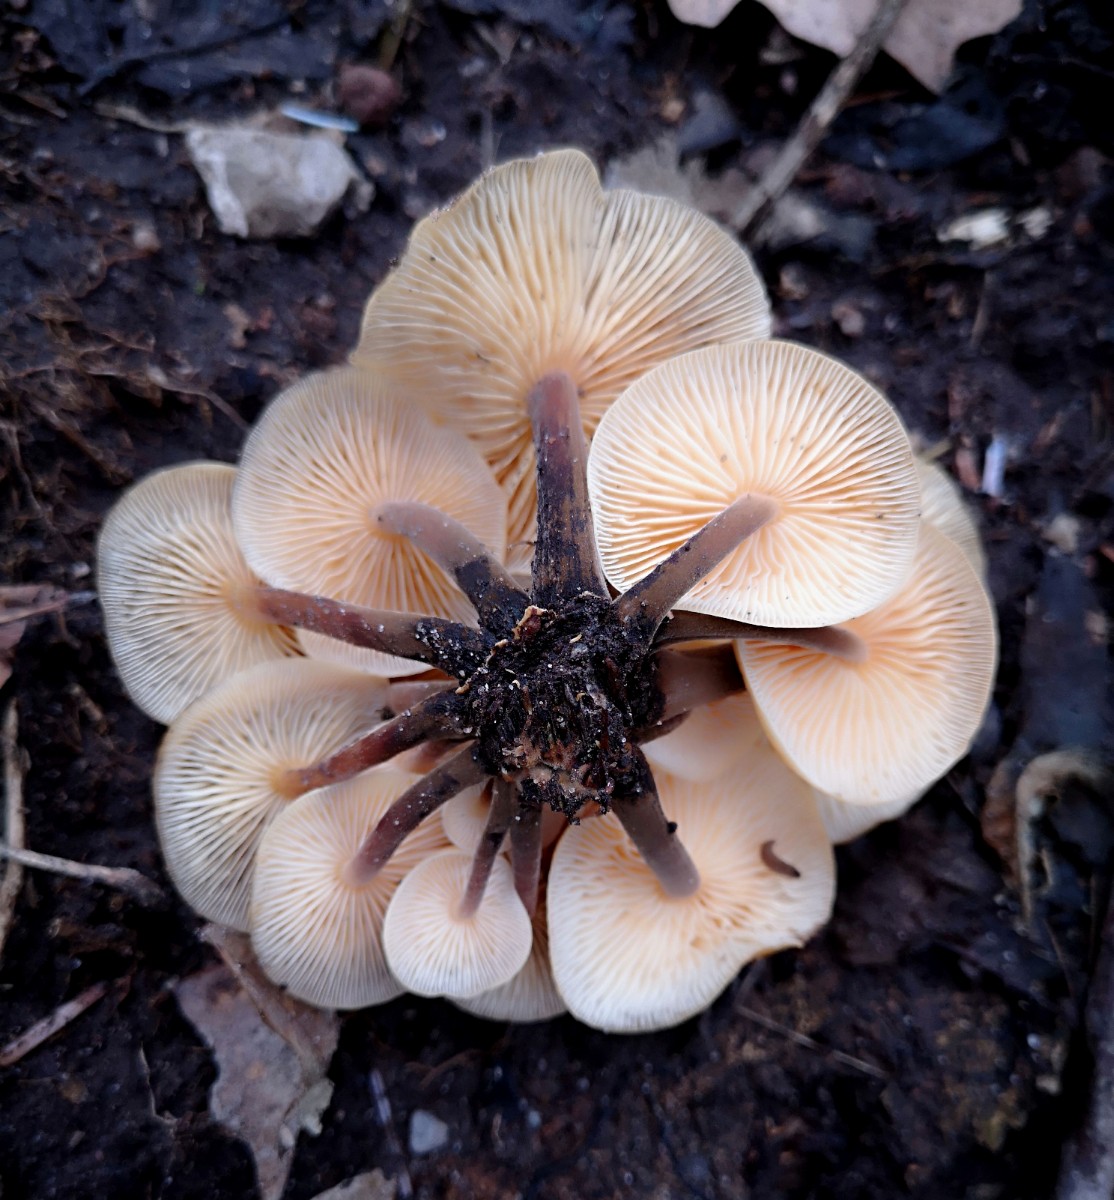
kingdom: Fungi
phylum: Basidiomycota
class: Agaricomycetes
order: Agaricales
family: Physalacriaceae
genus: Flammulina
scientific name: Flammulina
